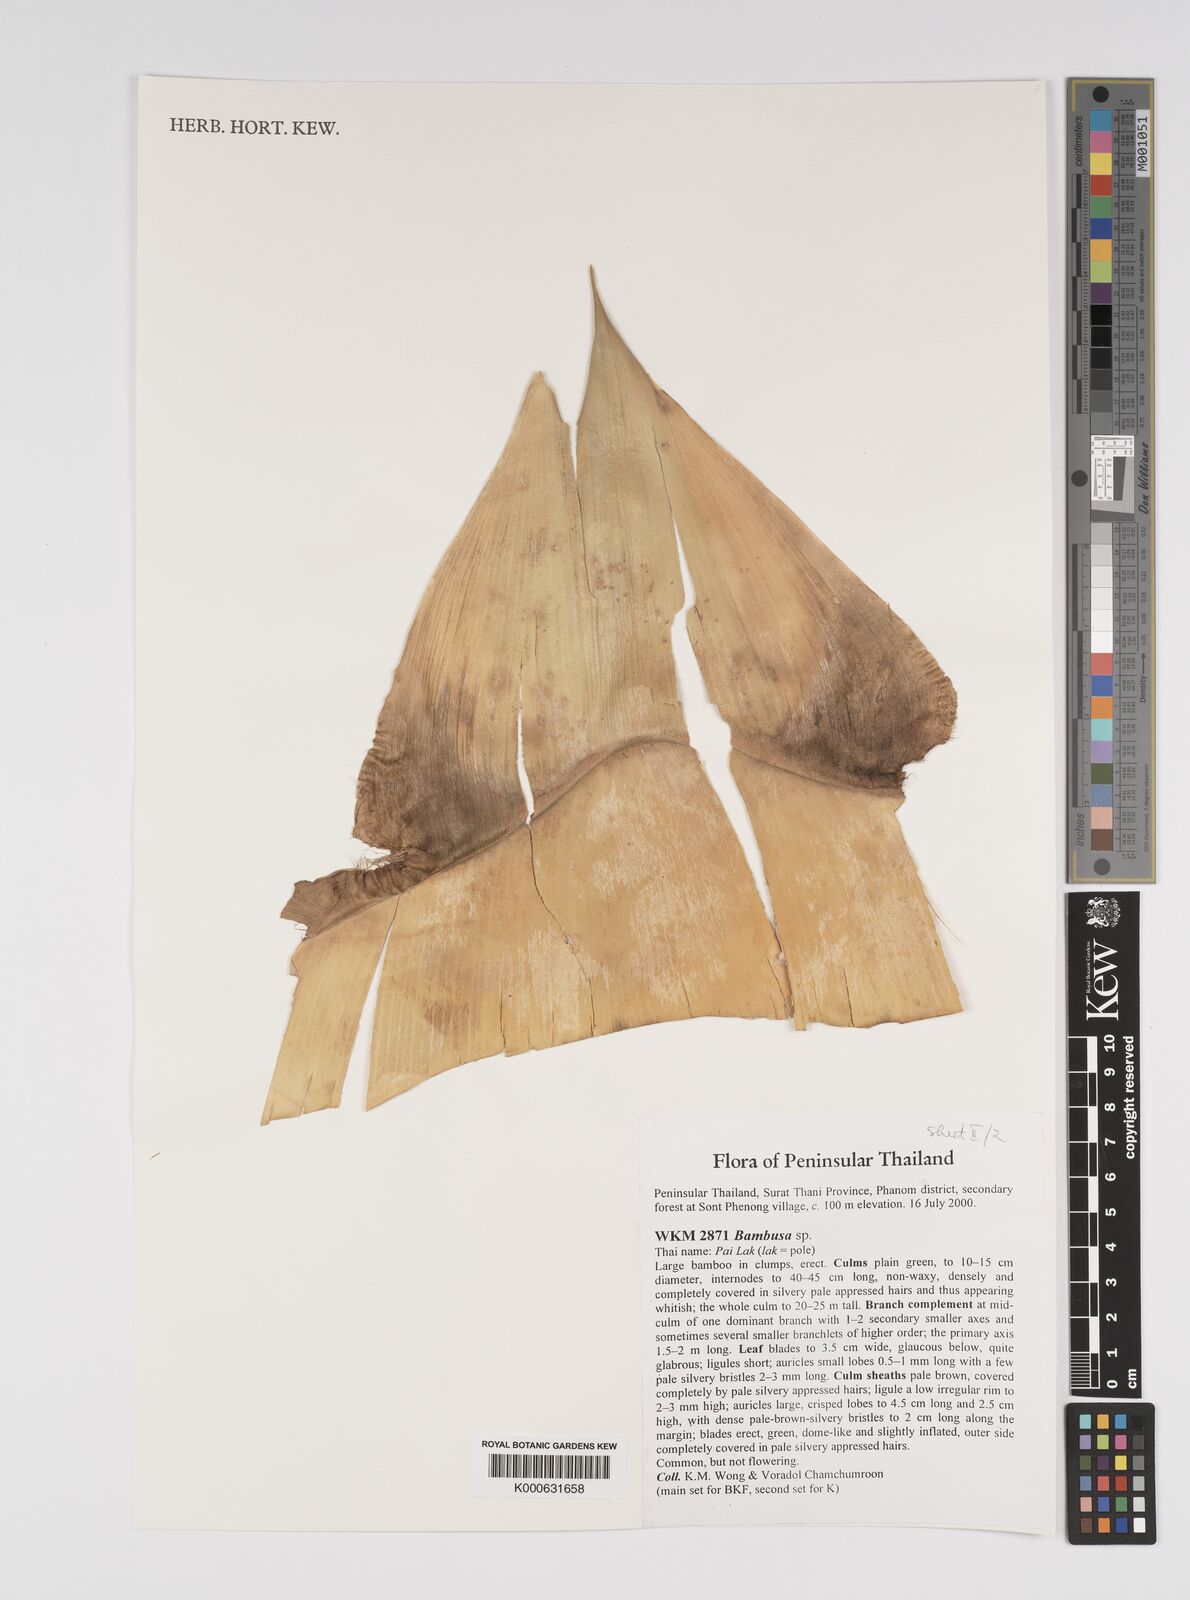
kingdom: Plantae
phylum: Tracheophyta
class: Liliopsida
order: Poales
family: Poaceae
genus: Bambusa
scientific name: Bambusa
